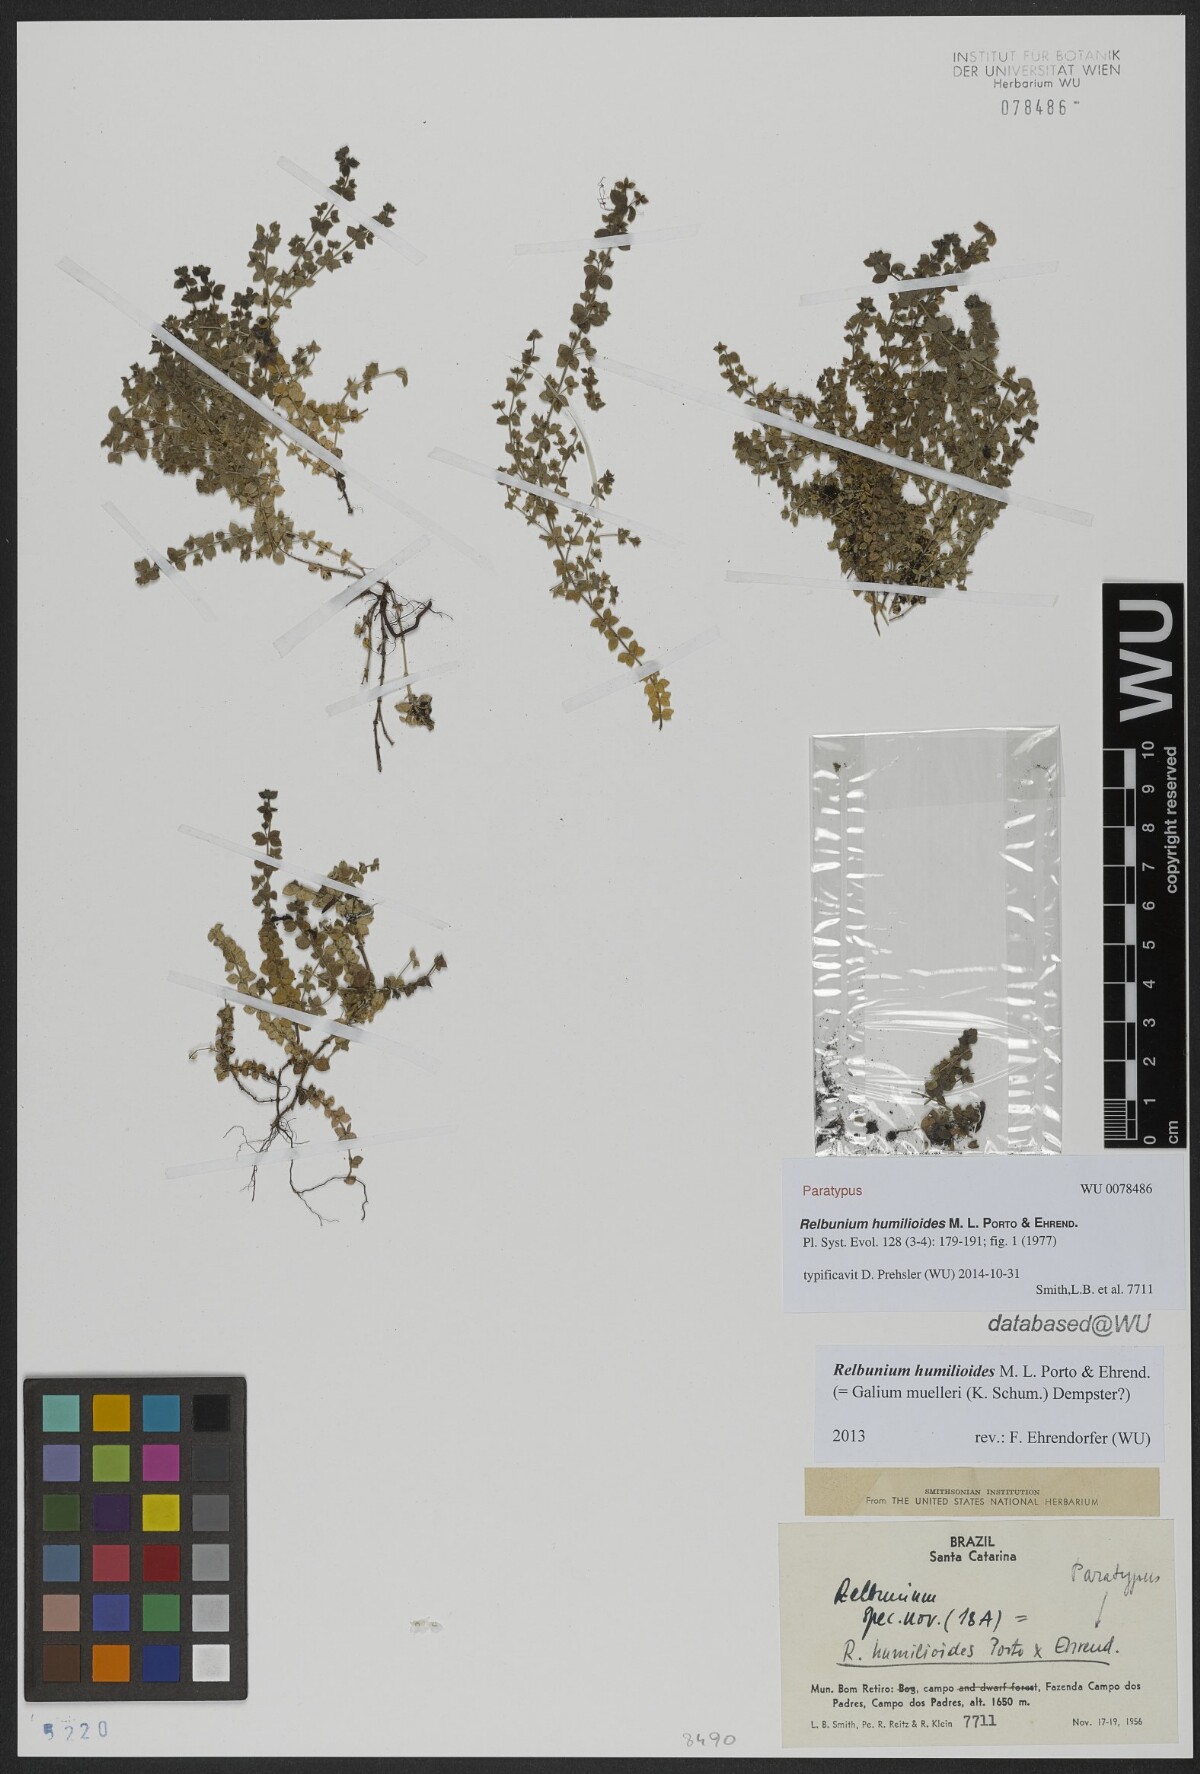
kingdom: Plantae
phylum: Tracheophyta
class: Magnoliopsida
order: Gentianales
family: Rubiaceae
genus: Galium
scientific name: Galium humilioides
